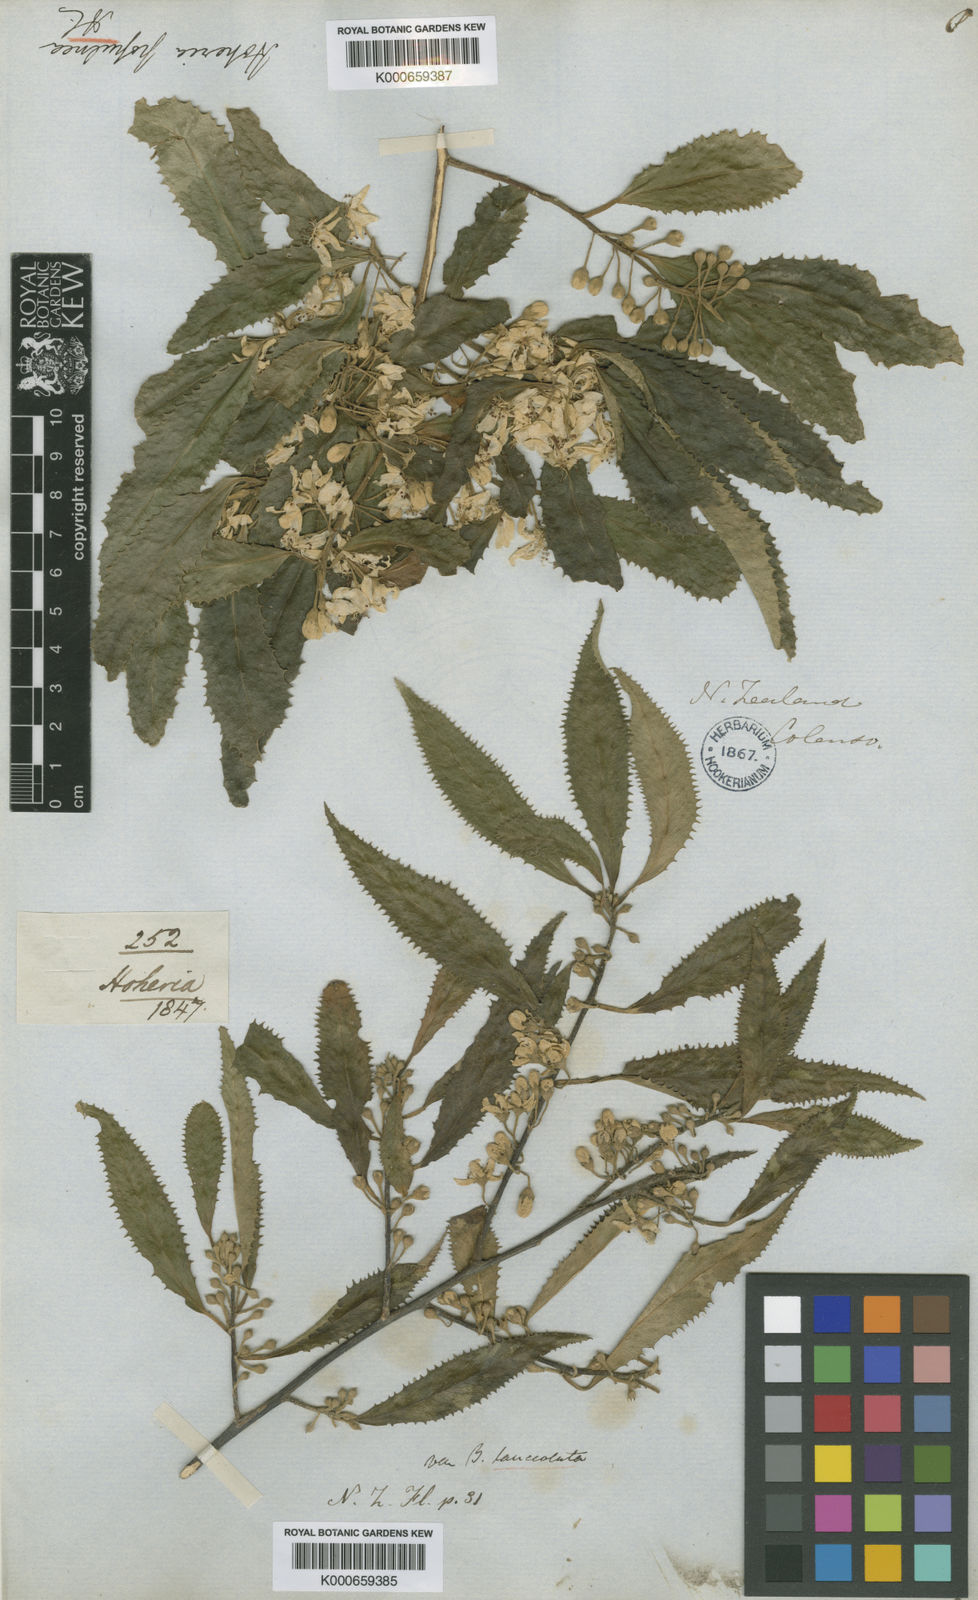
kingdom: Plantae
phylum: Tracheophyta
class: Magnoliopsida
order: Malvales
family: Malvaceae
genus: Hoheria
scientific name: Hoheria sexstylosa
